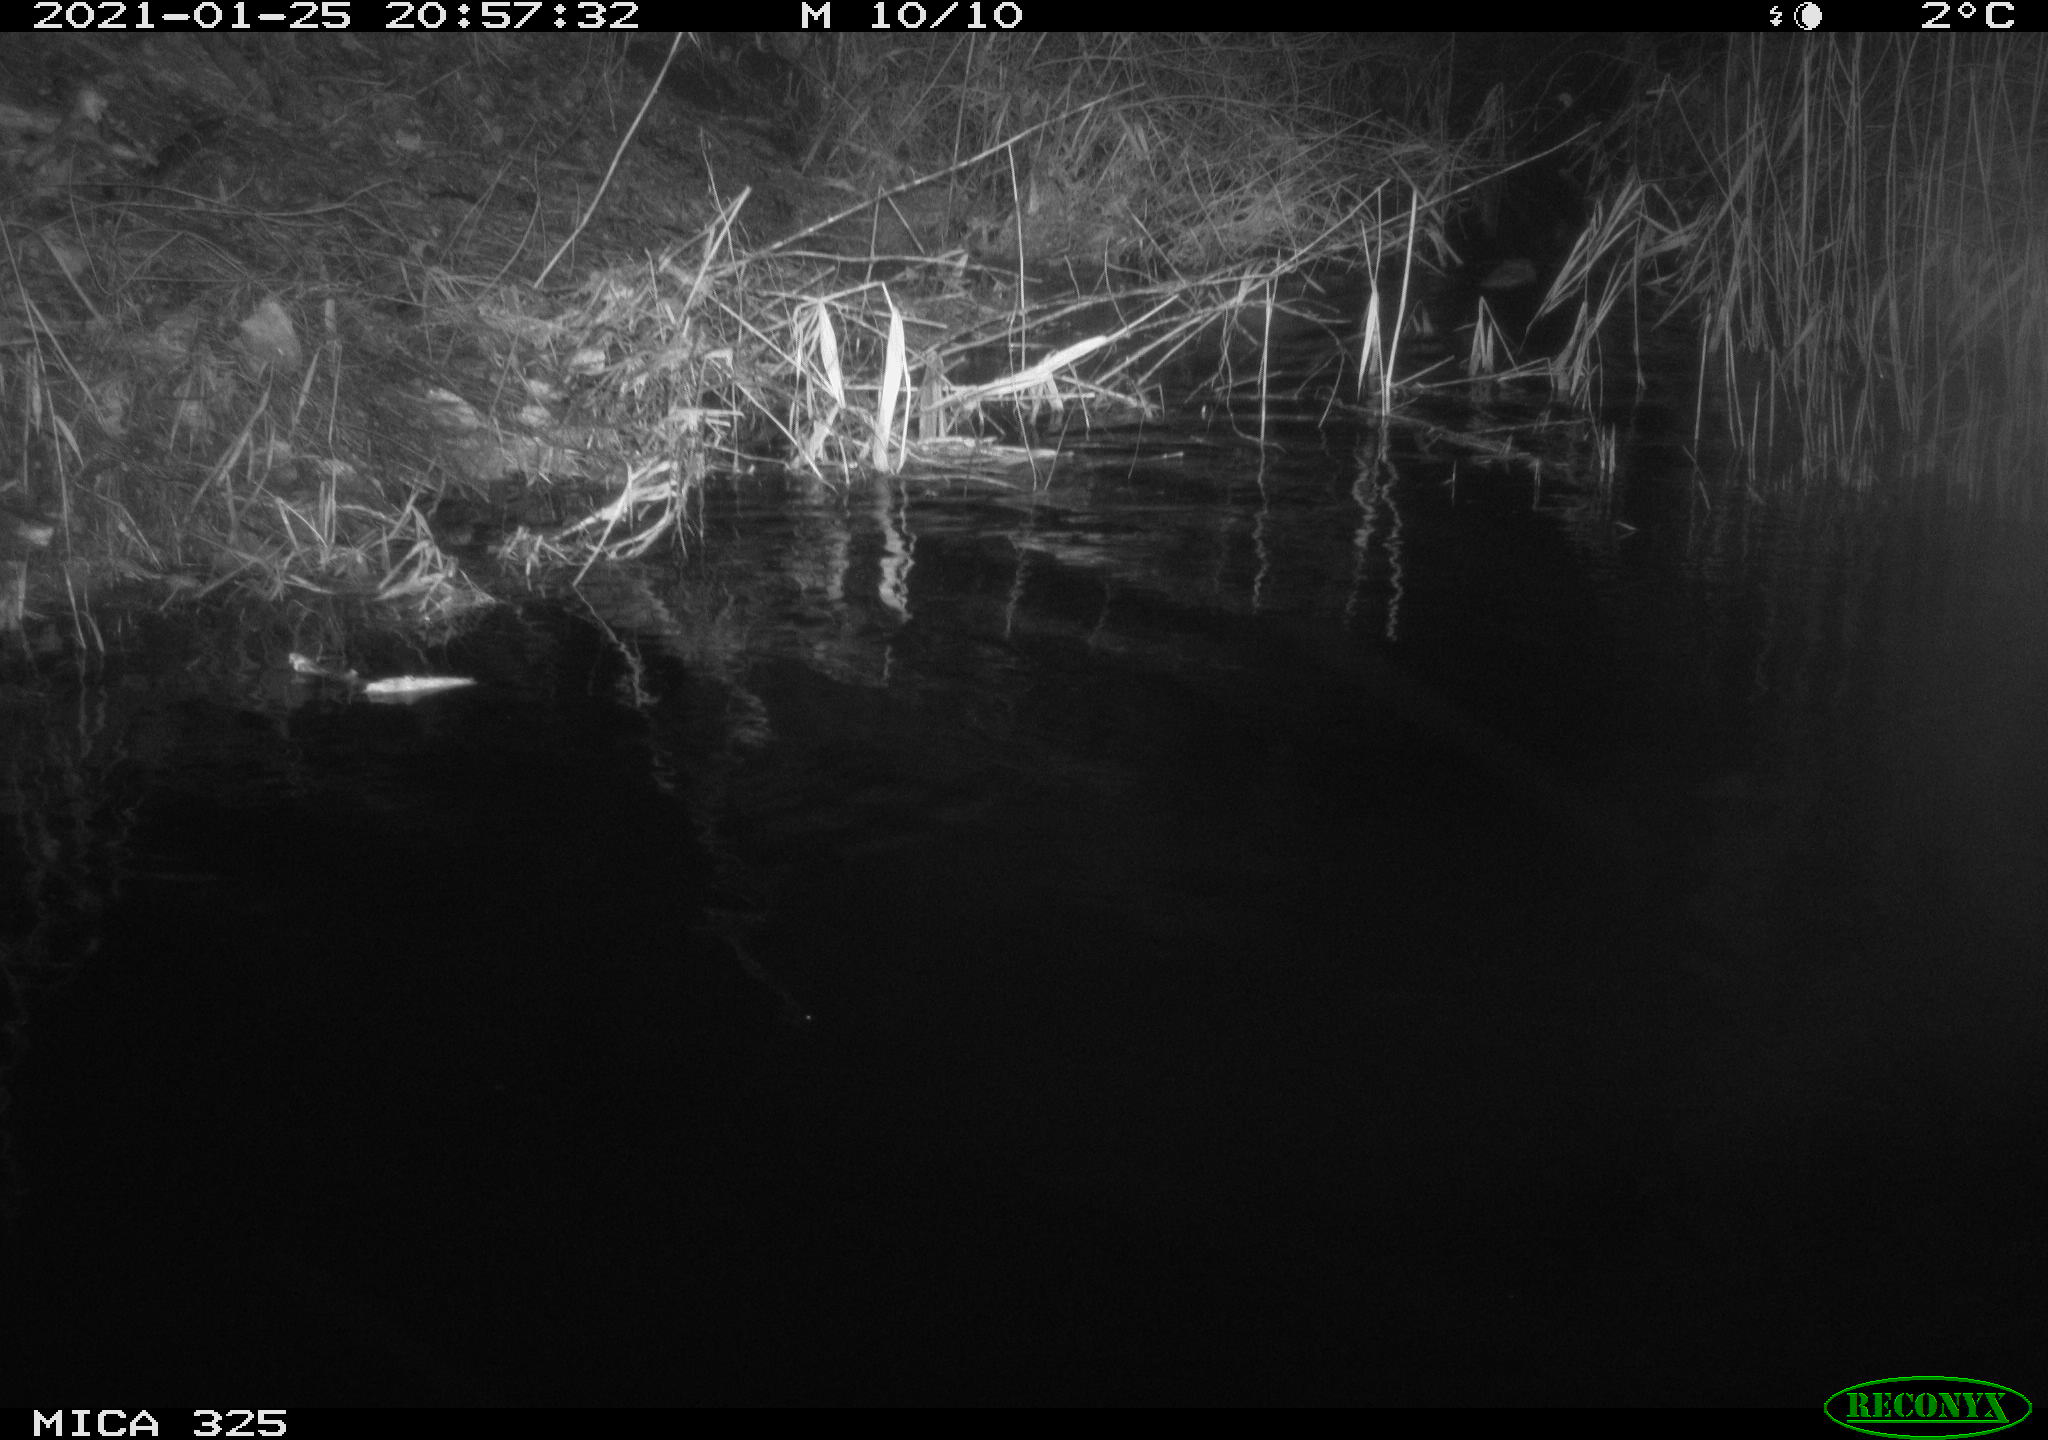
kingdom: Animalia
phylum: Chordata
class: Mammalia
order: Rodentia
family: Cricetidae
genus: Ondatra
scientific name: Ondatra zibethicus
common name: Muskrat
